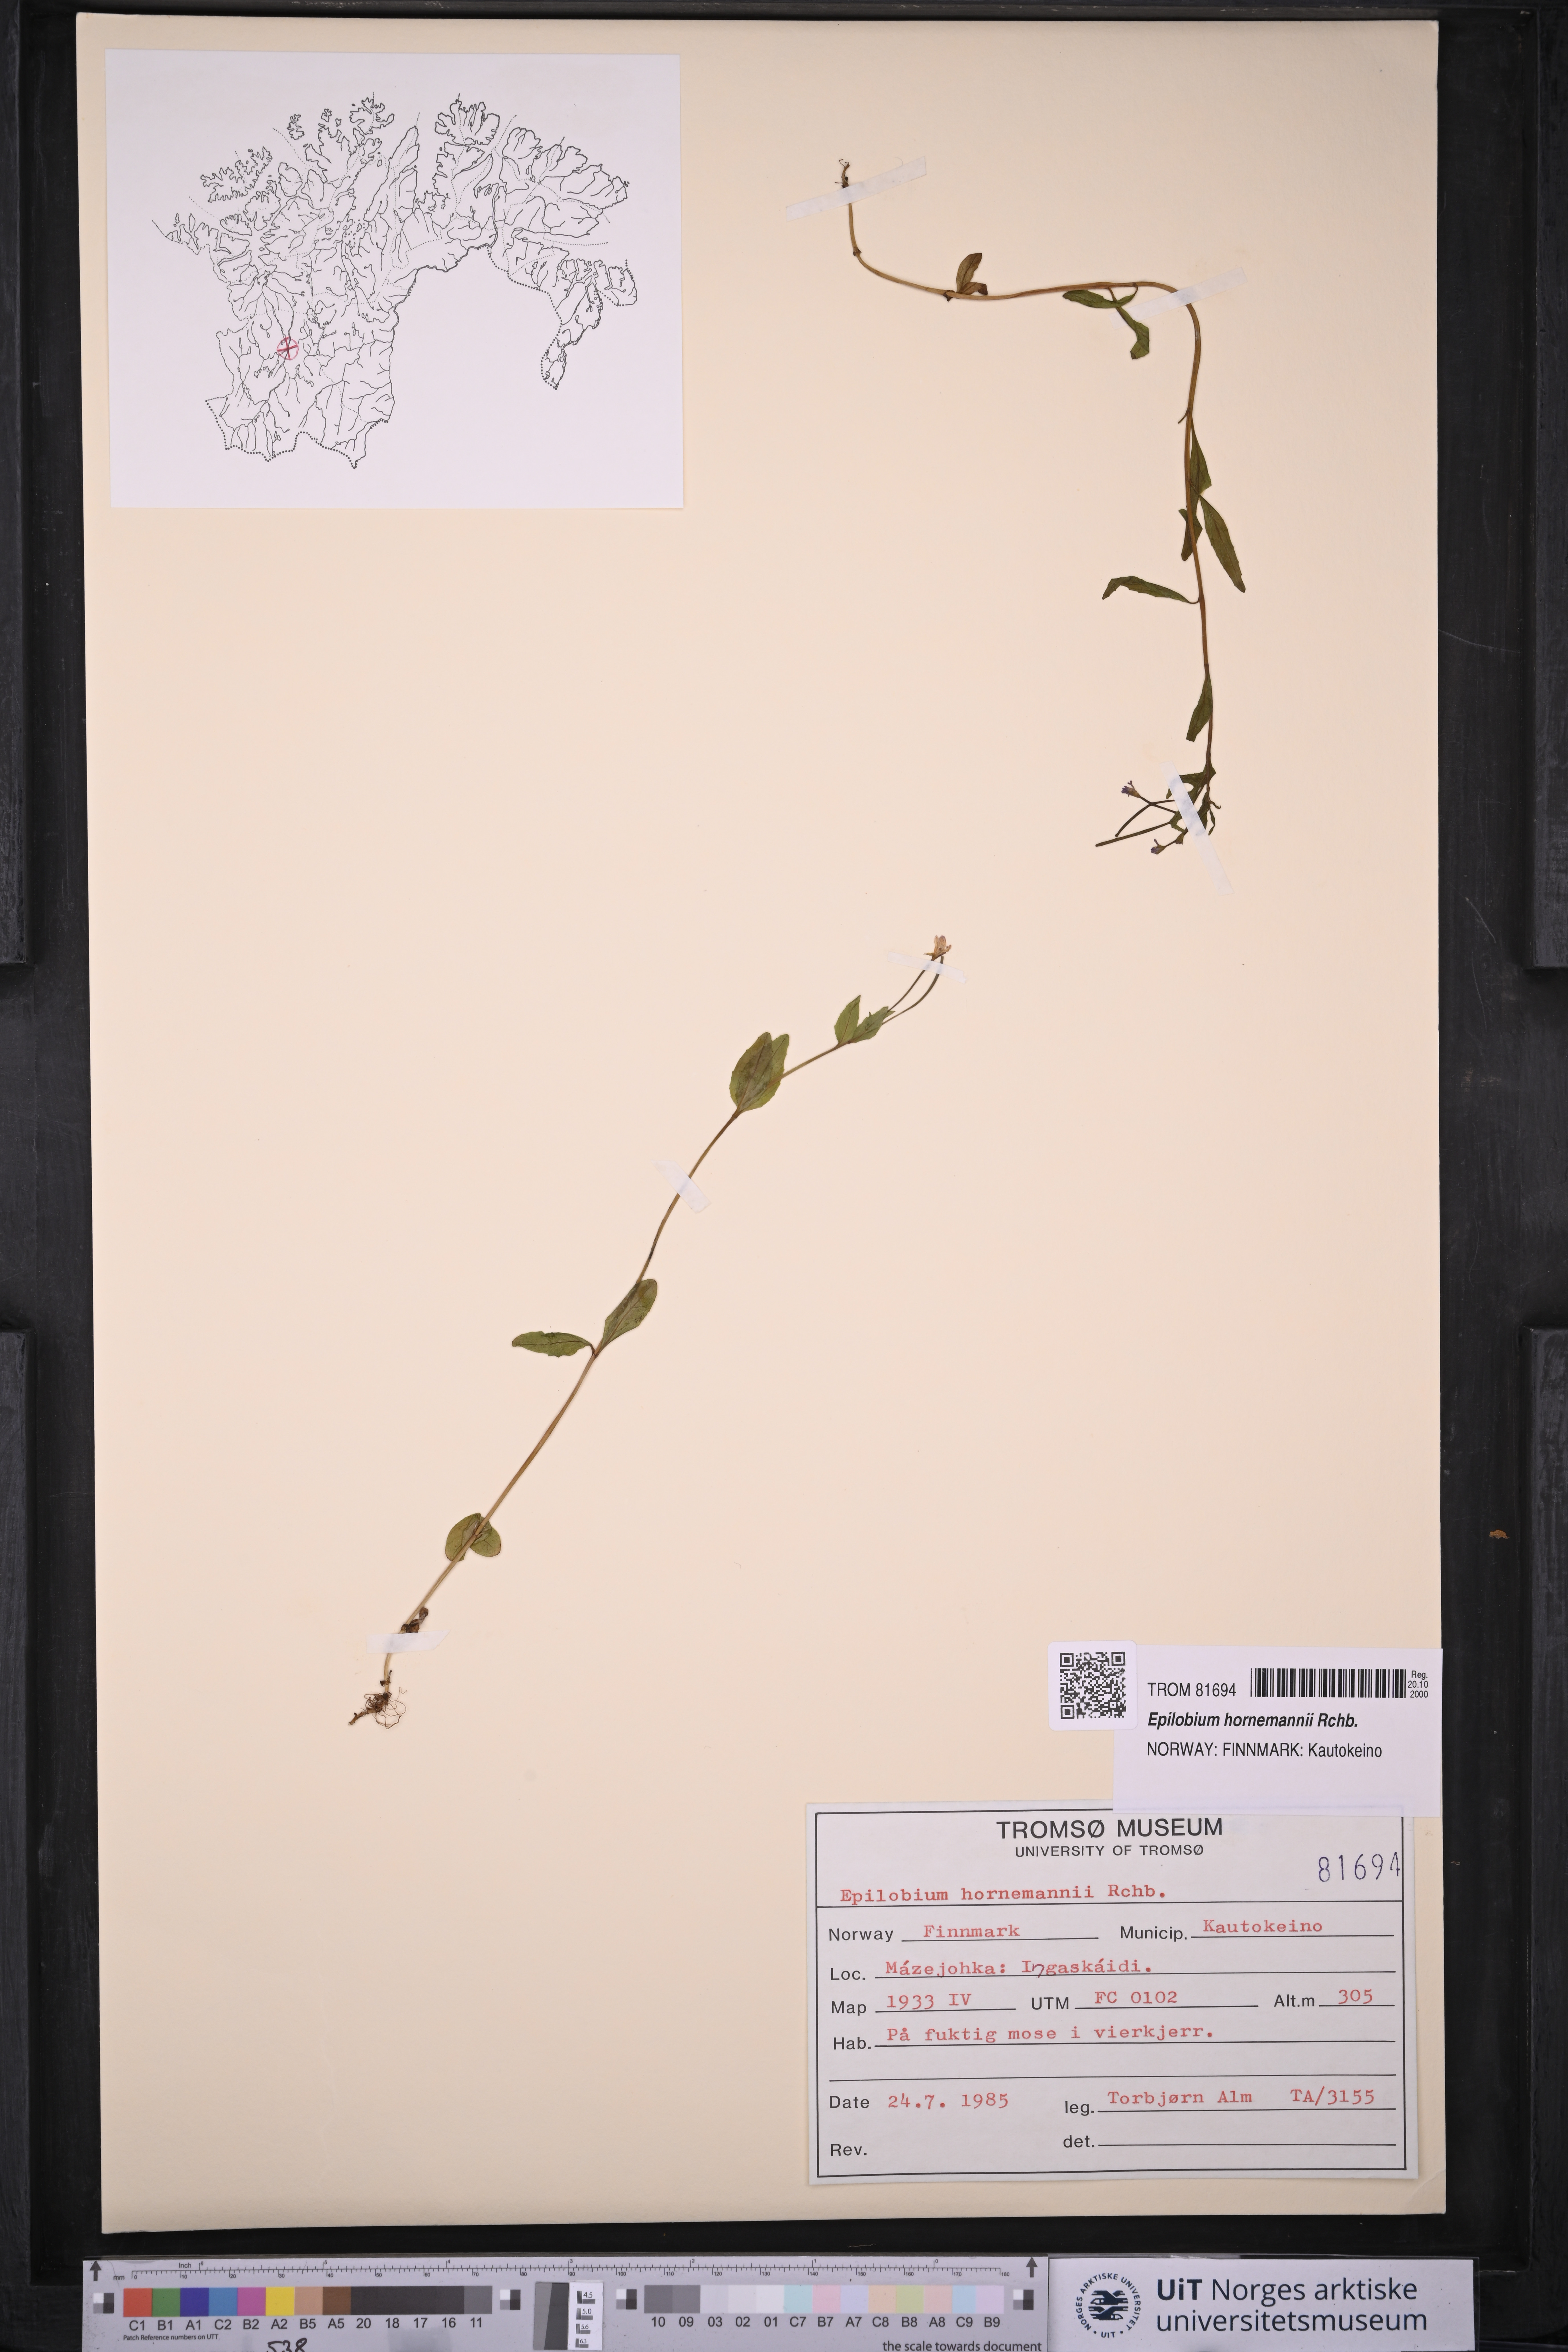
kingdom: Plantae
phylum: Tracheophyta
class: Magnoliopsida
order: Myrtales
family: Onagraceae
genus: Epilobium
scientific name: Epilobium hornemannii
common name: Hornemann's willowherb
